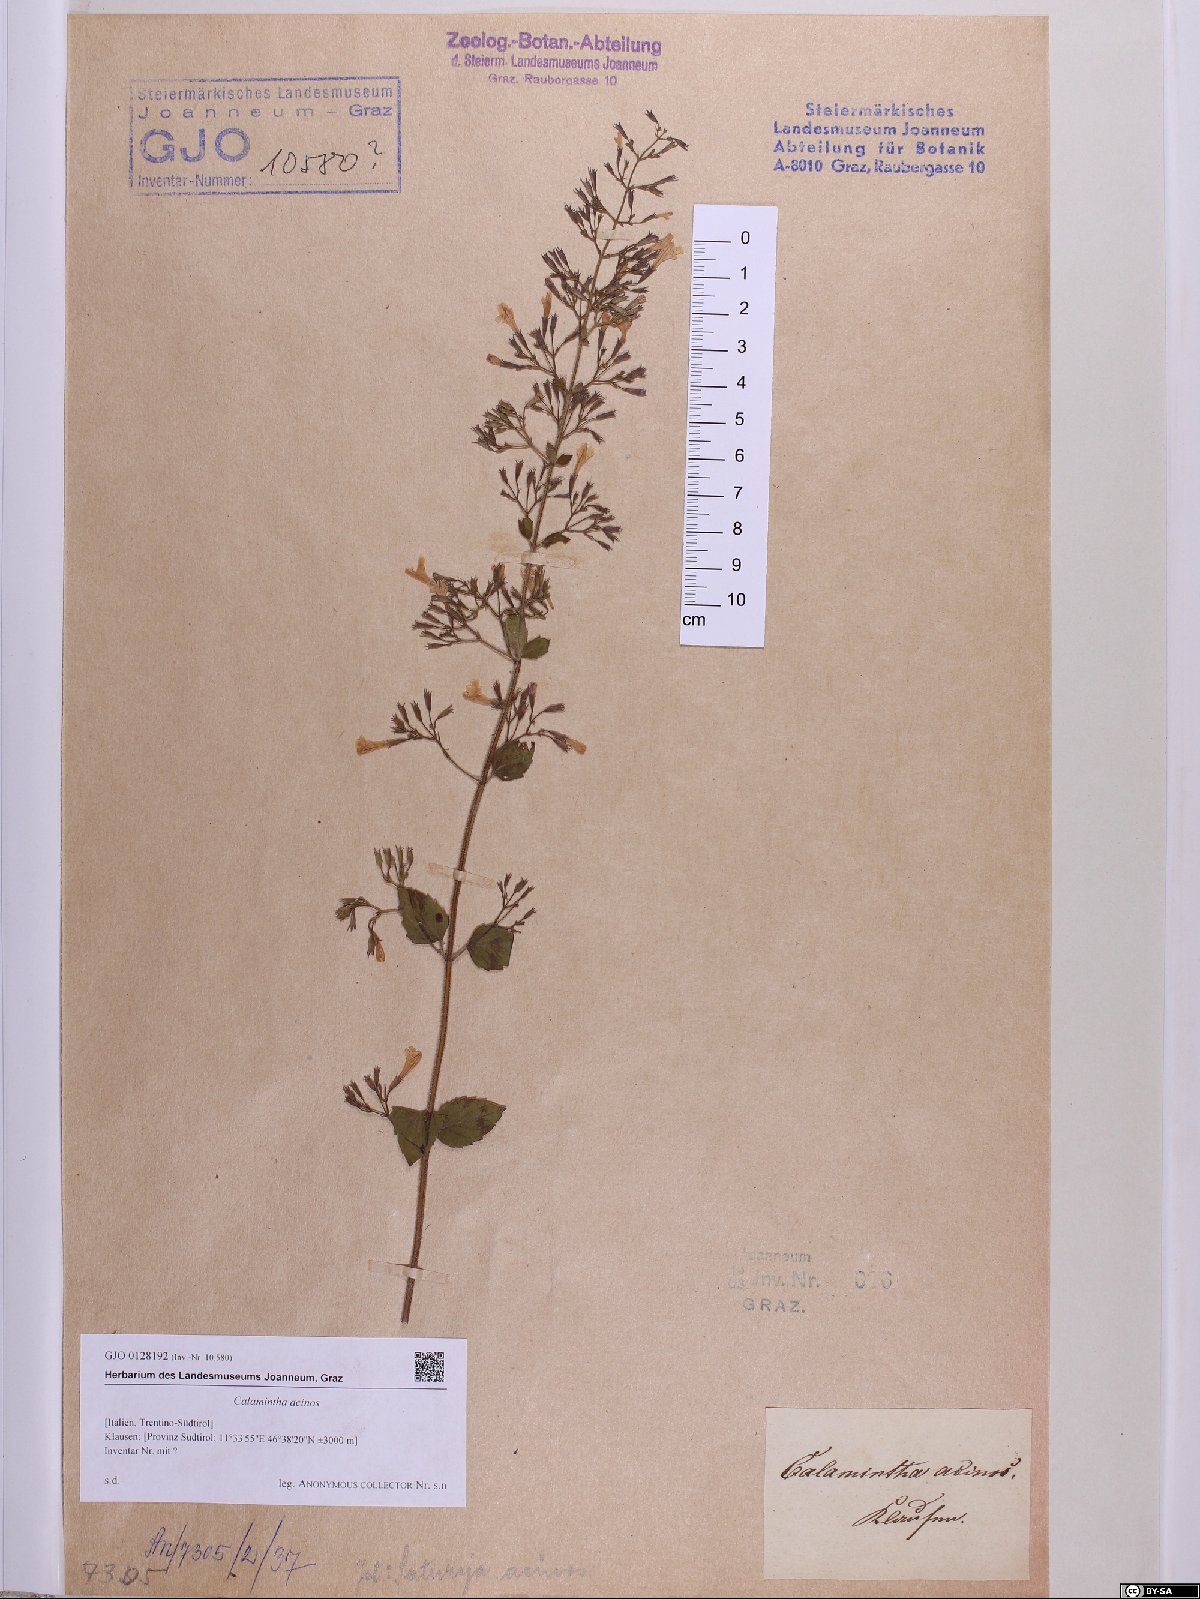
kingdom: Plantae
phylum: Tracheophyta
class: Magnoliopsida
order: Lamiales
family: Lamiaceae
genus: Clinopodium
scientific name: Clinopodium acinos
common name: Basil thyme
